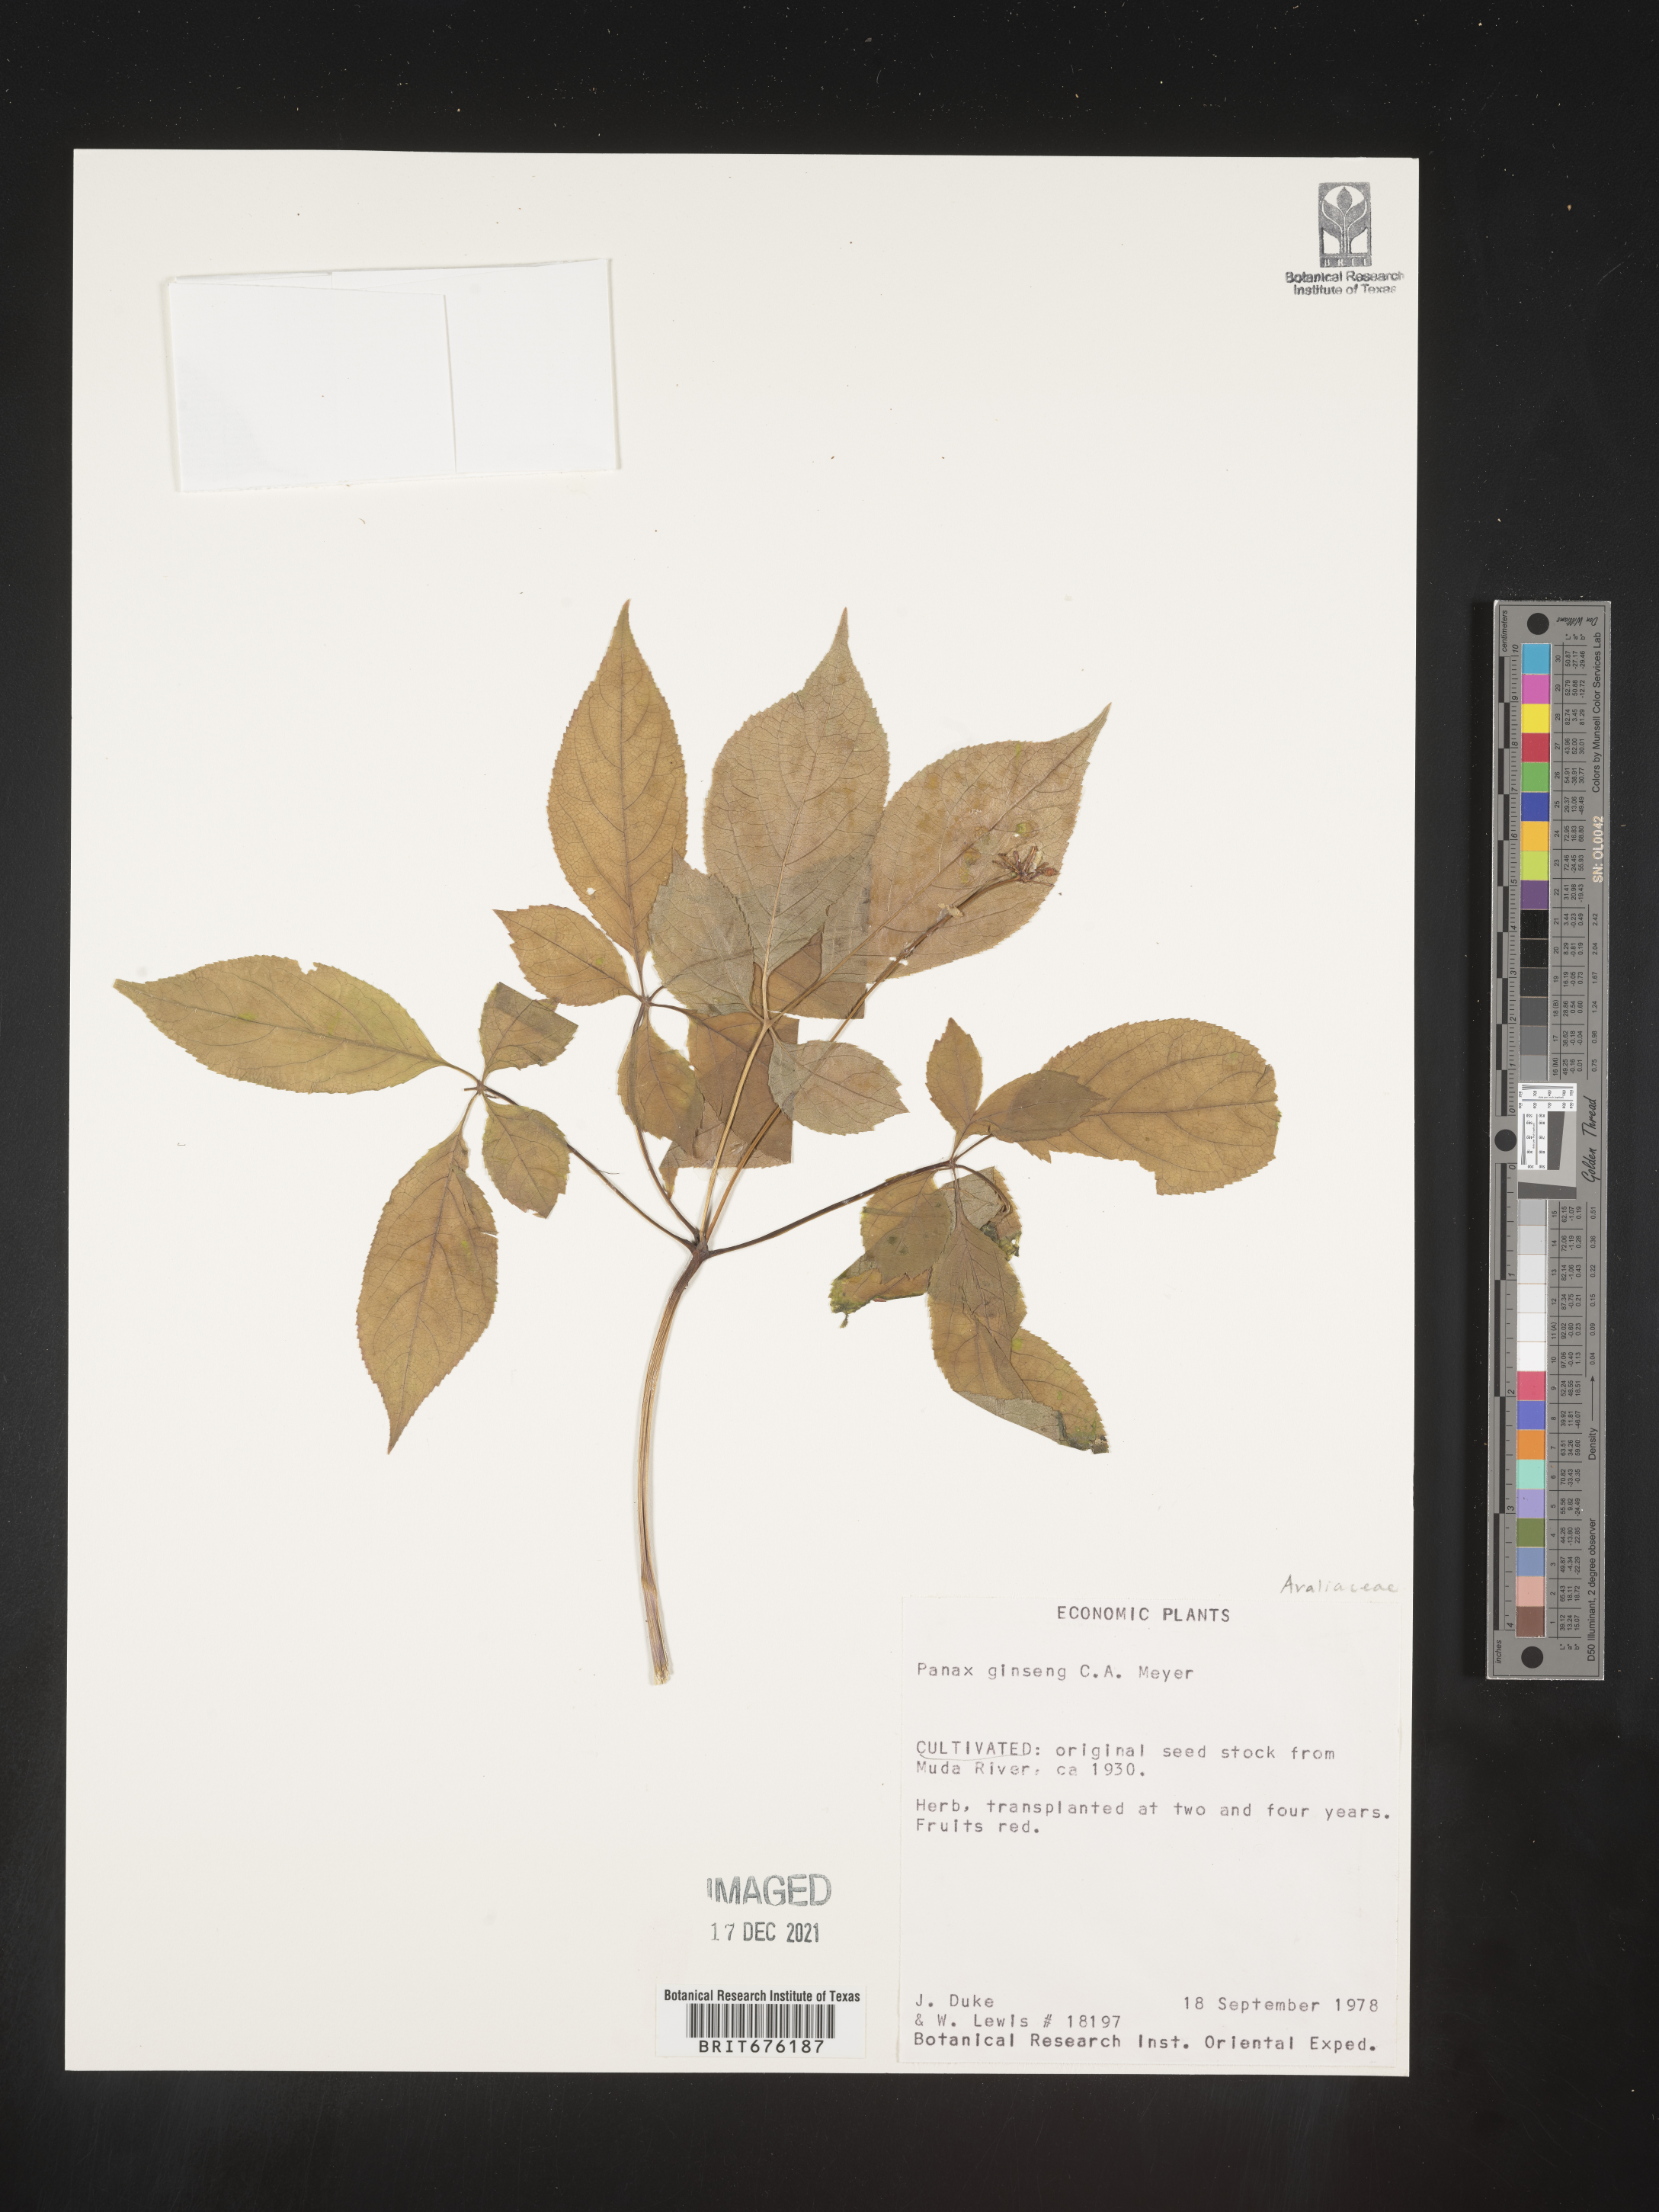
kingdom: Plantae
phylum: Tracheophyta
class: Magnoliopsida
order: Apiales
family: Araliaceae
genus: Panax
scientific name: Panax ginseng
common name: Chinese ginseng
